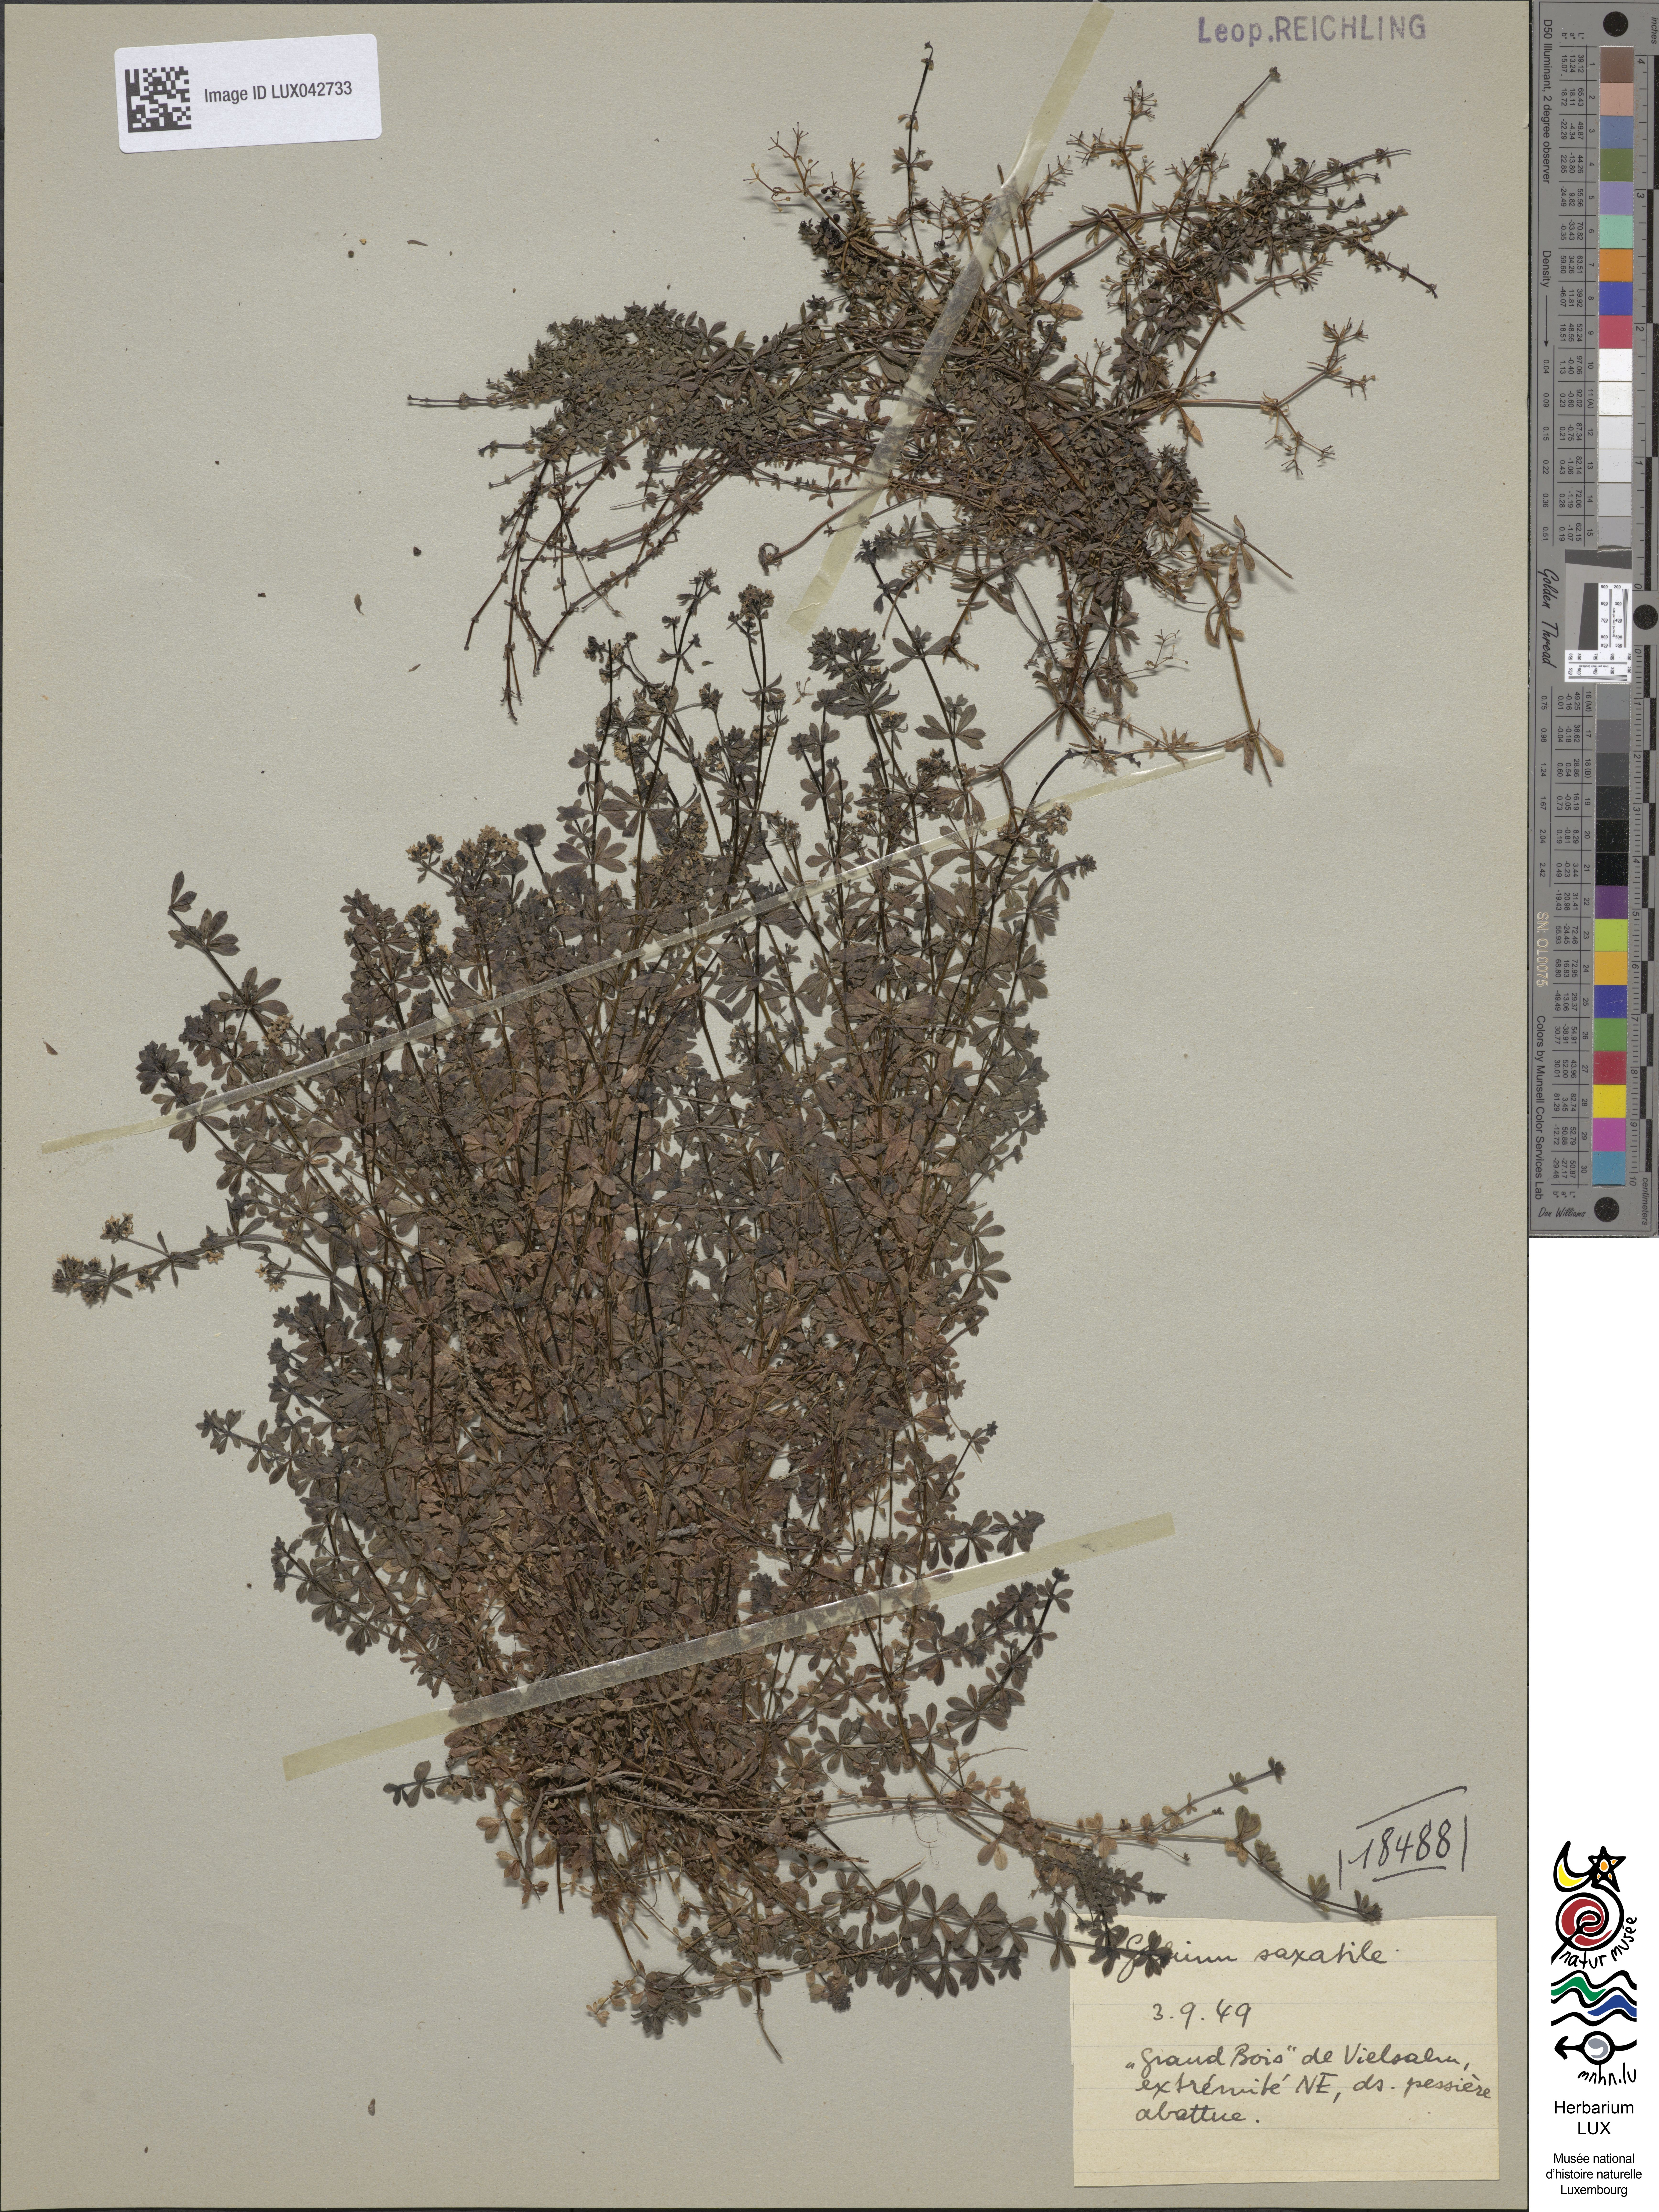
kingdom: Plantae
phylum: Tracheophyta
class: Magnoliopsida
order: Gentianales
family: Rubiaceae
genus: Galium
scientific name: Galium saxatile
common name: Heath bedstraw
